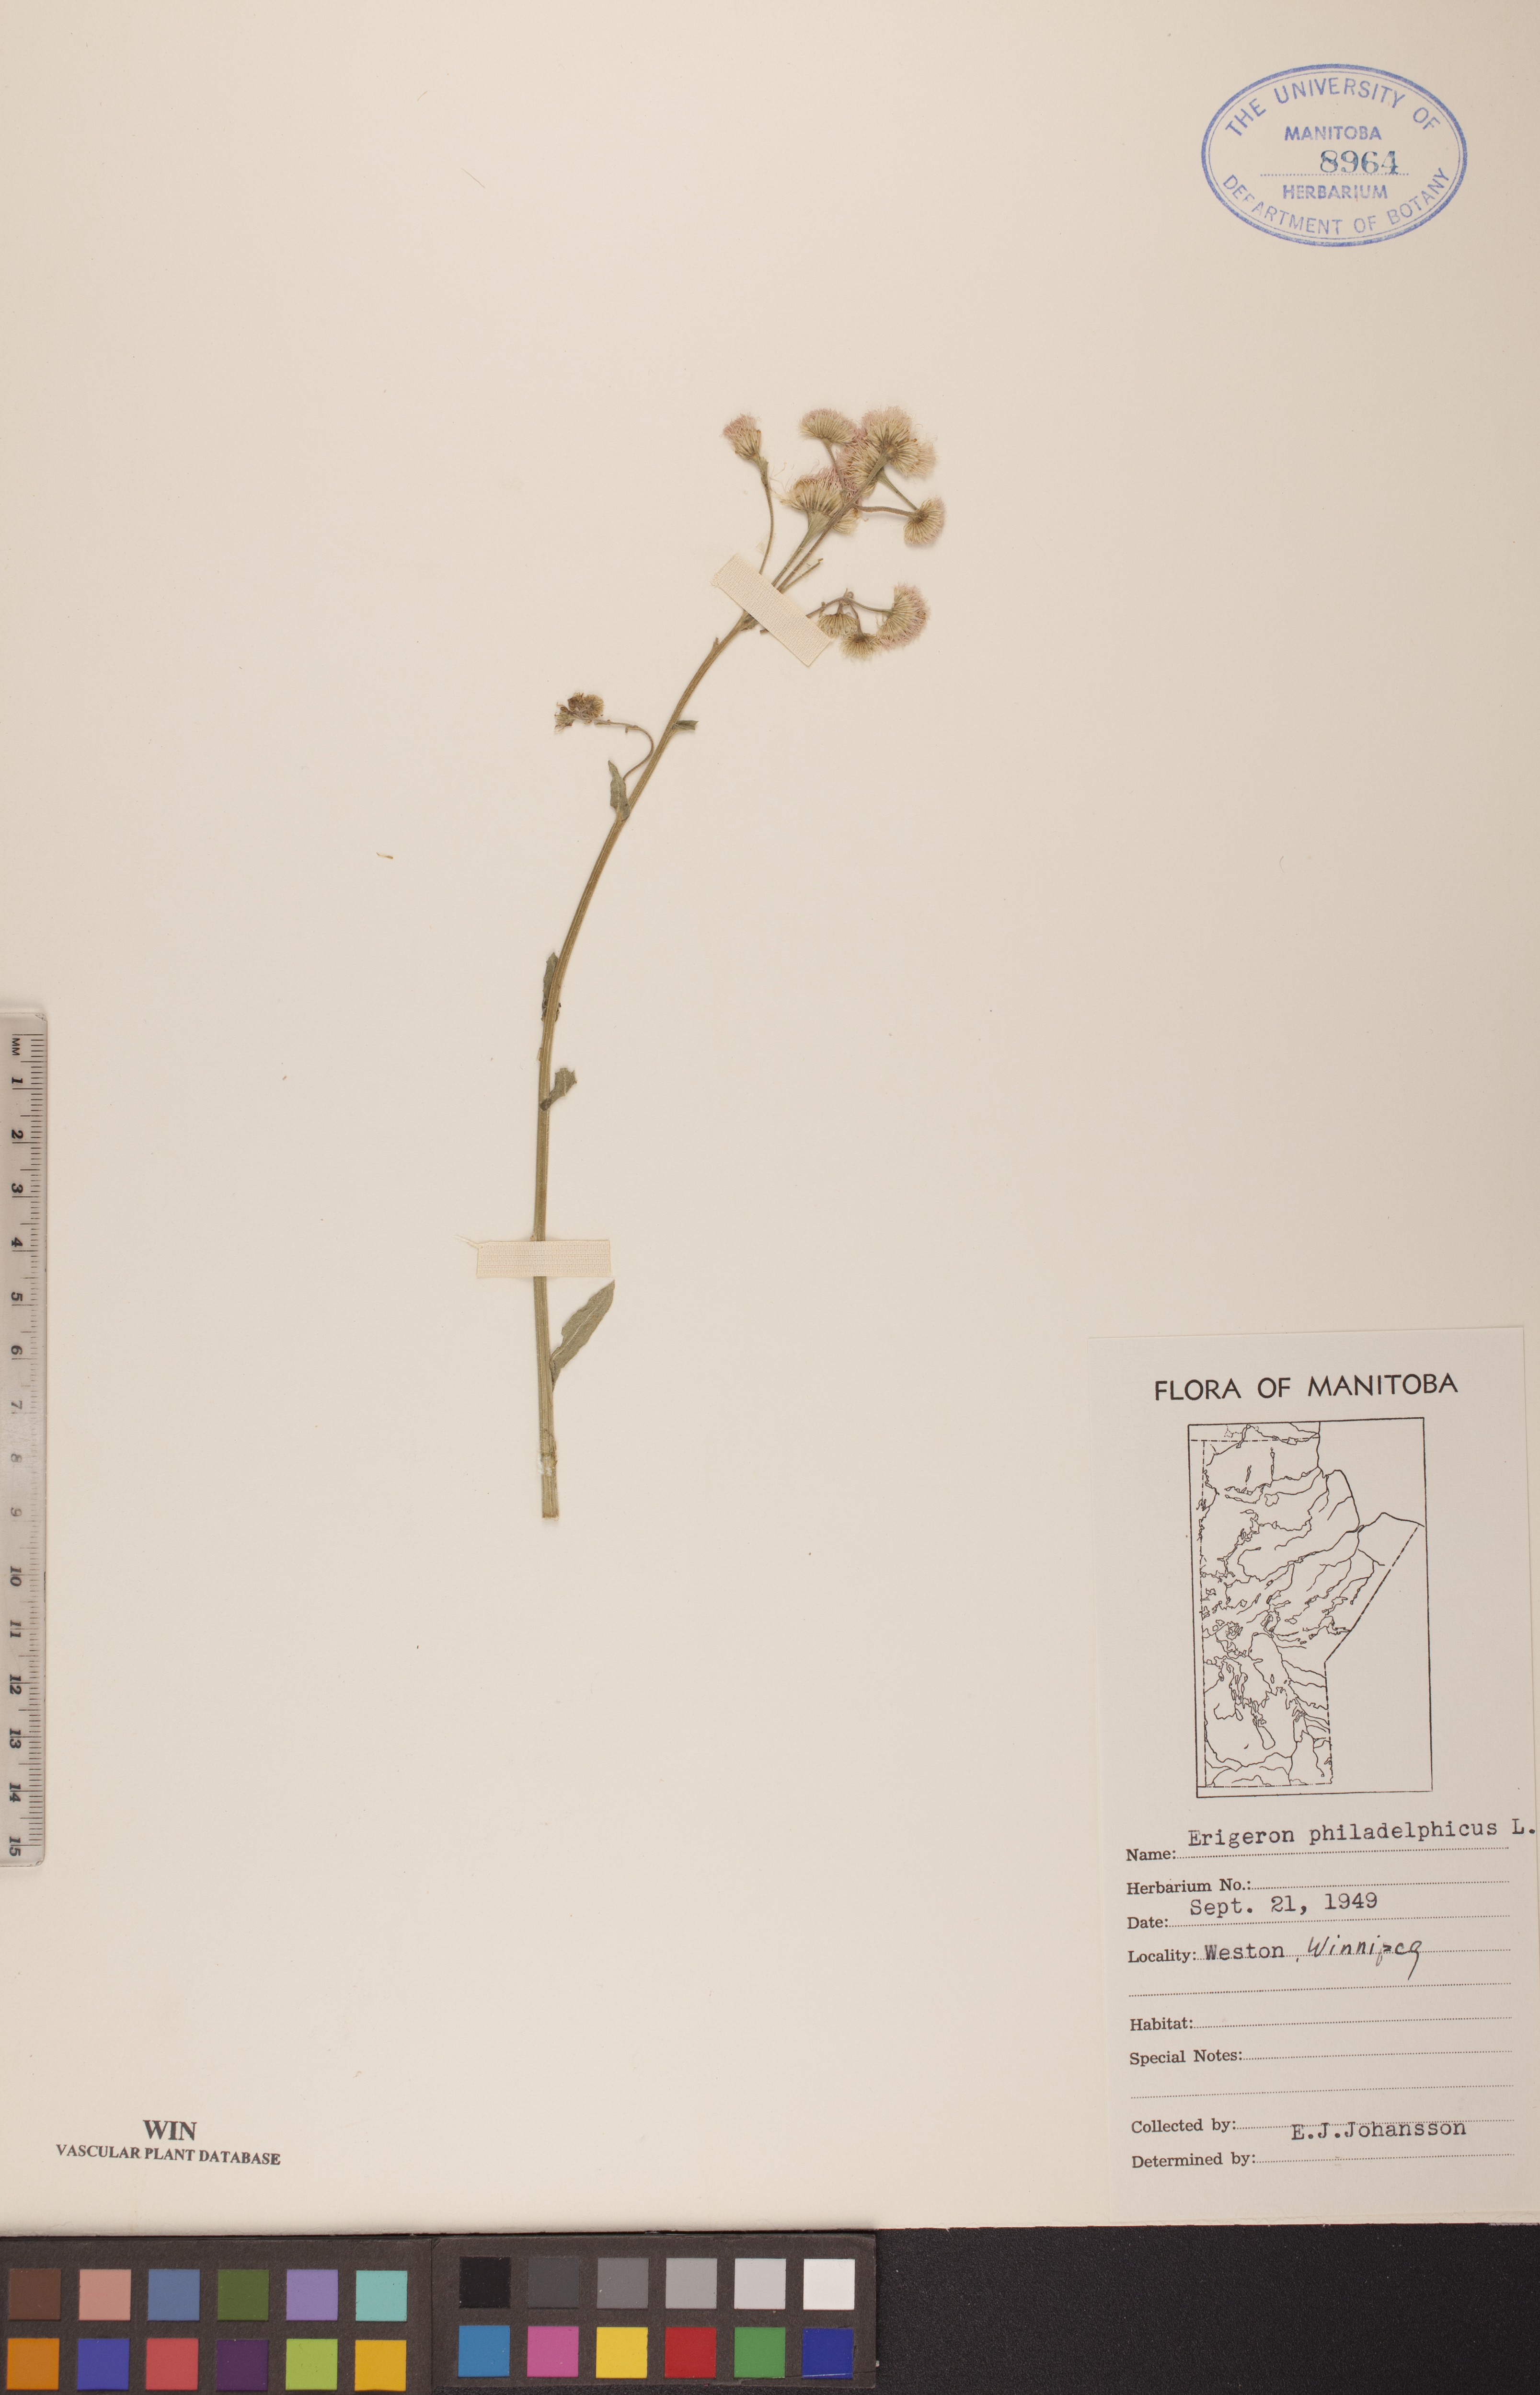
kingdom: Plantae
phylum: Tracheophyta
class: Magnoliopsida
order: Asterales
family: Asteraceae
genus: Erigeron
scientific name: Erigeron philadelphicus
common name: Robin's-plantain
